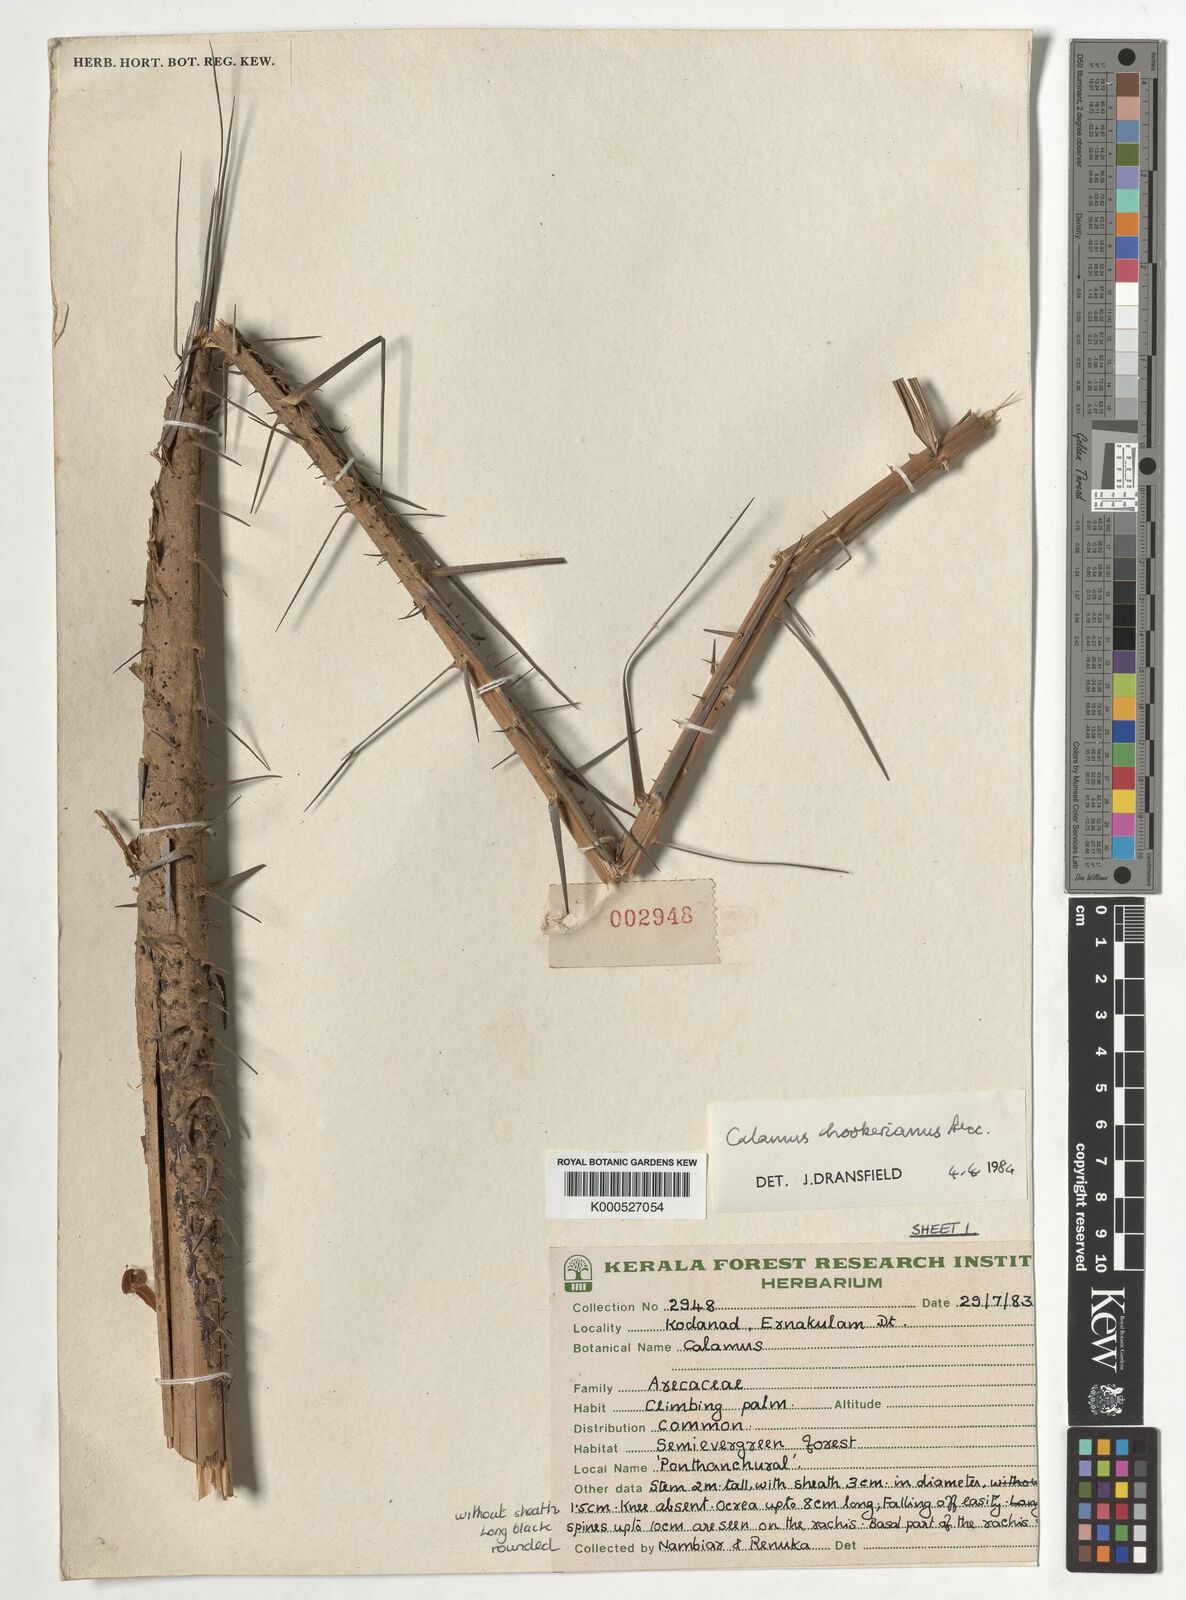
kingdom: Plantae
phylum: Tracheophyta
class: Liliopsida
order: Arecales
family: Arecaceae
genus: Calamus
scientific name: Calamus hookerianus
